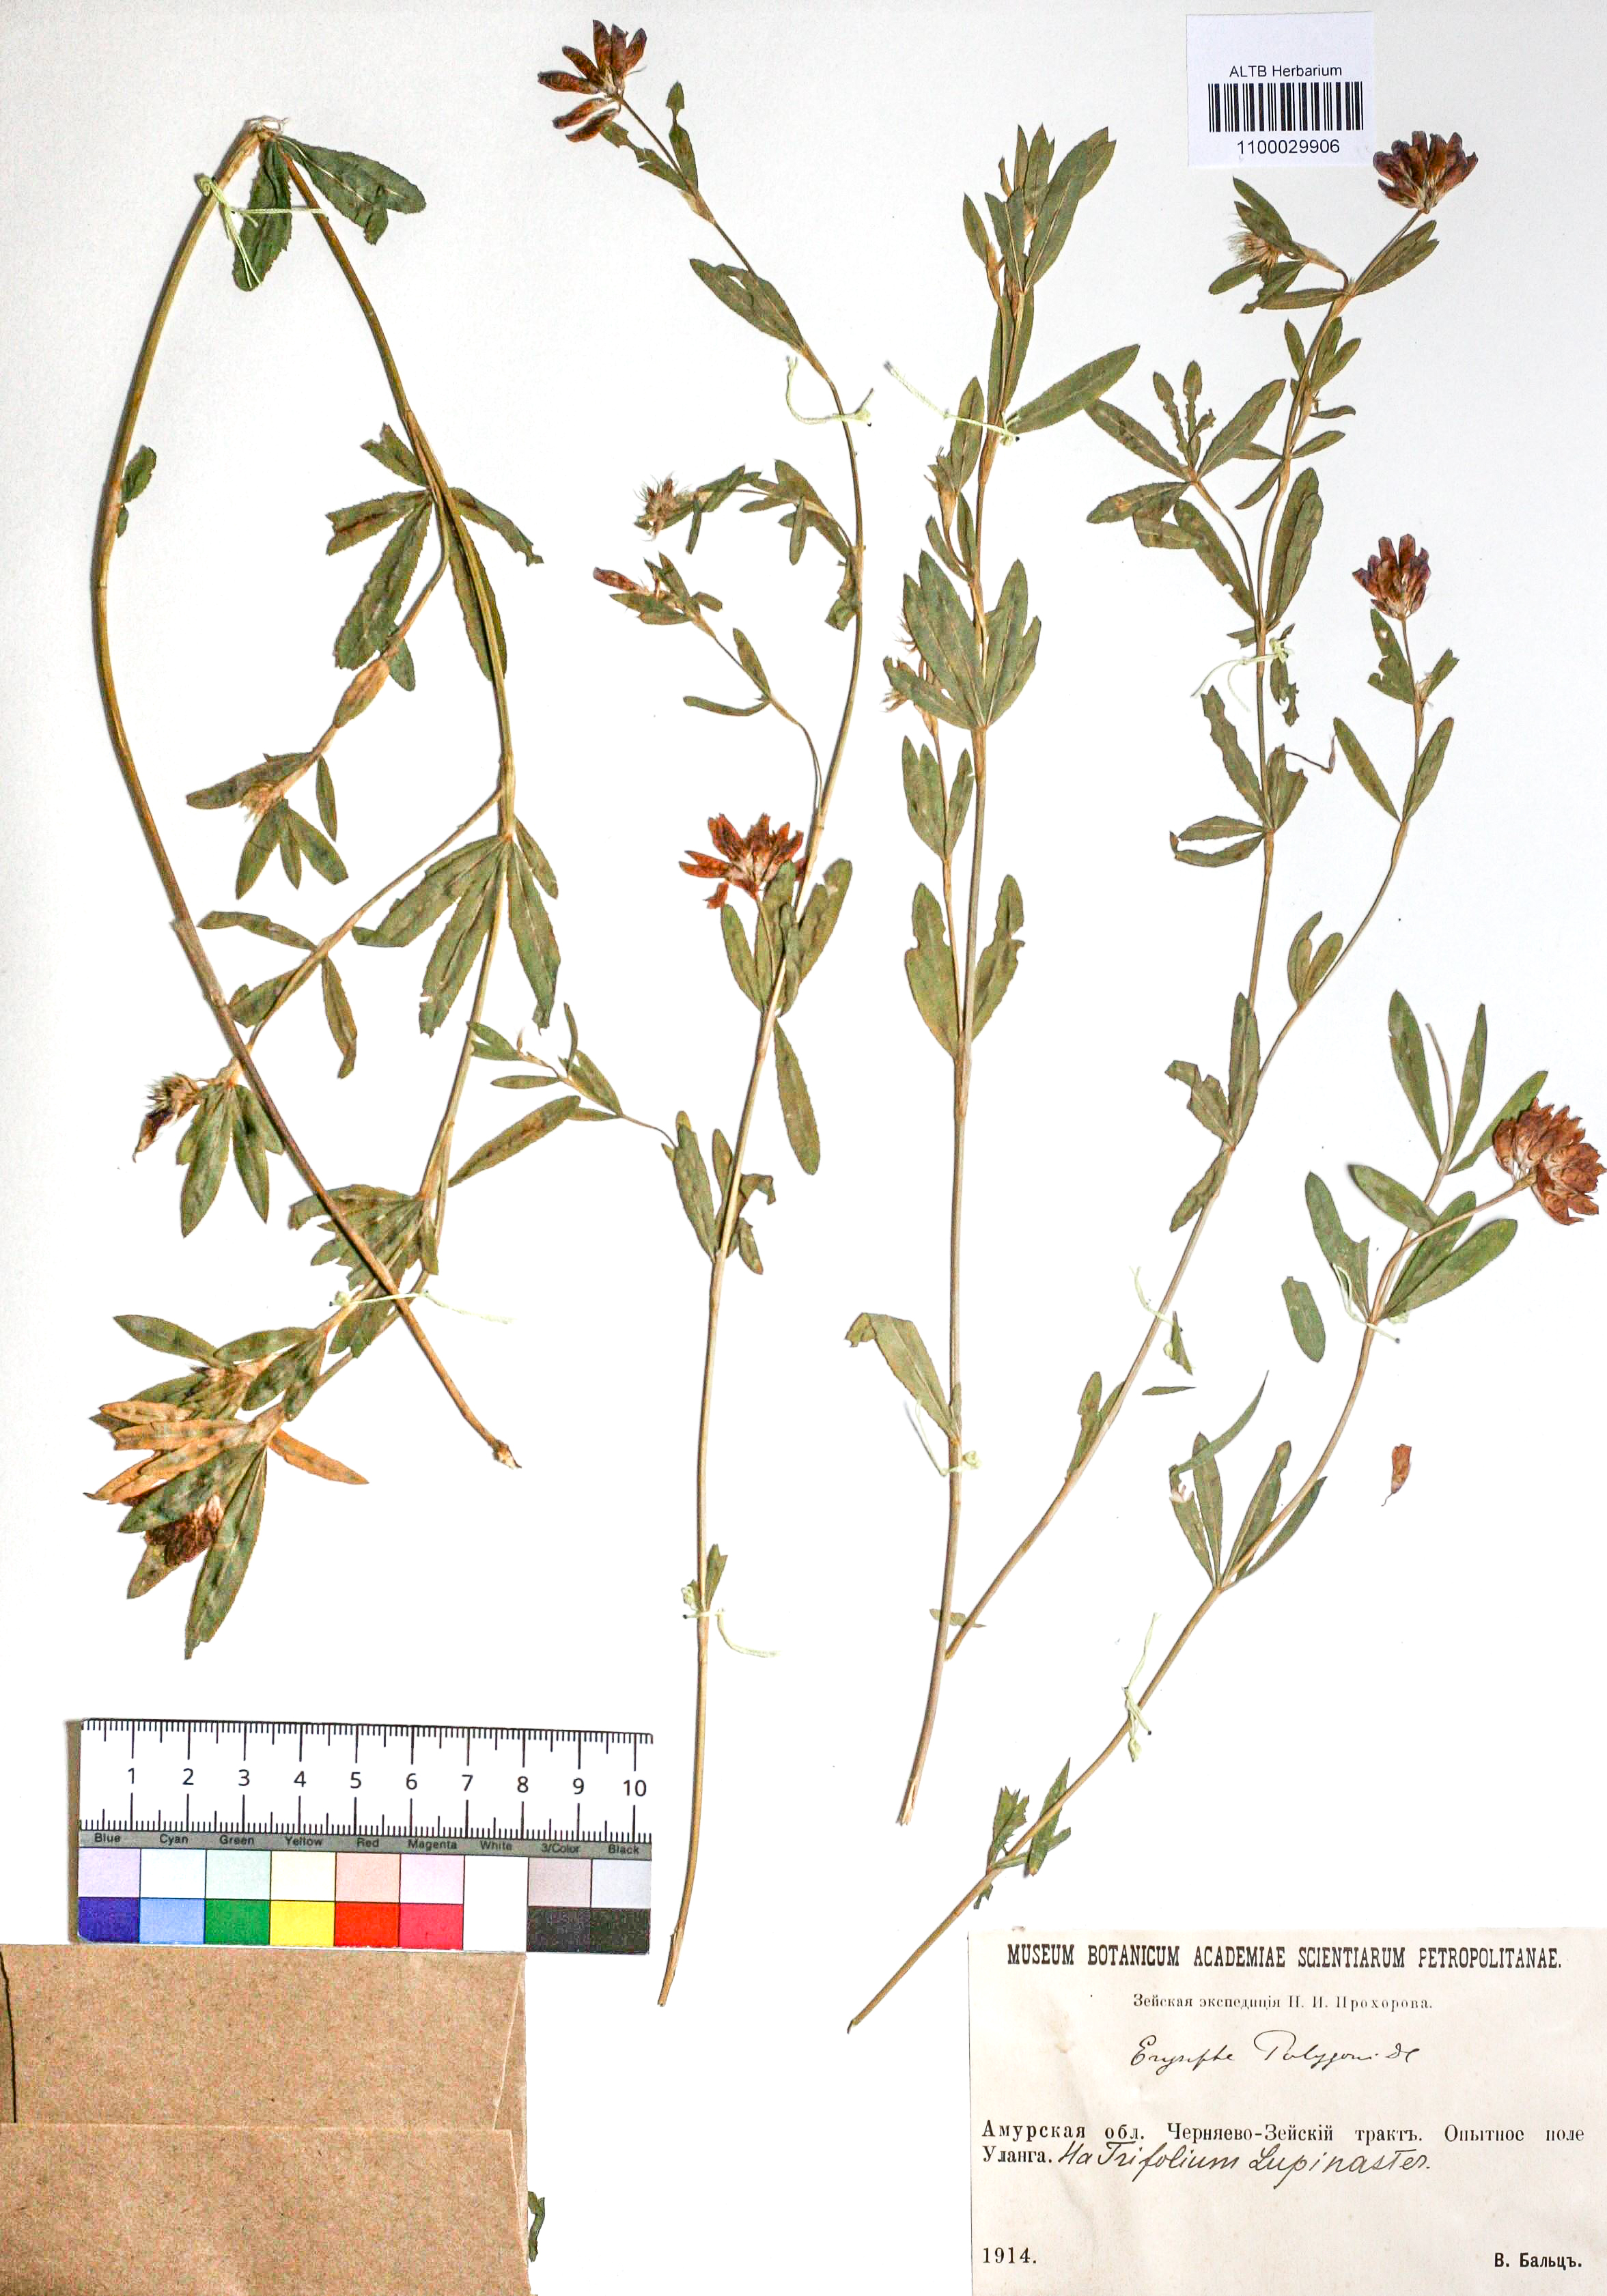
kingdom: Plantae
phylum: Tracheophyta
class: Magnoliopsida
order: Fabales
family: Fabaceae
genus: Trifolium
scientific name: Trifolium lupinaster
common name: Lupine clover
